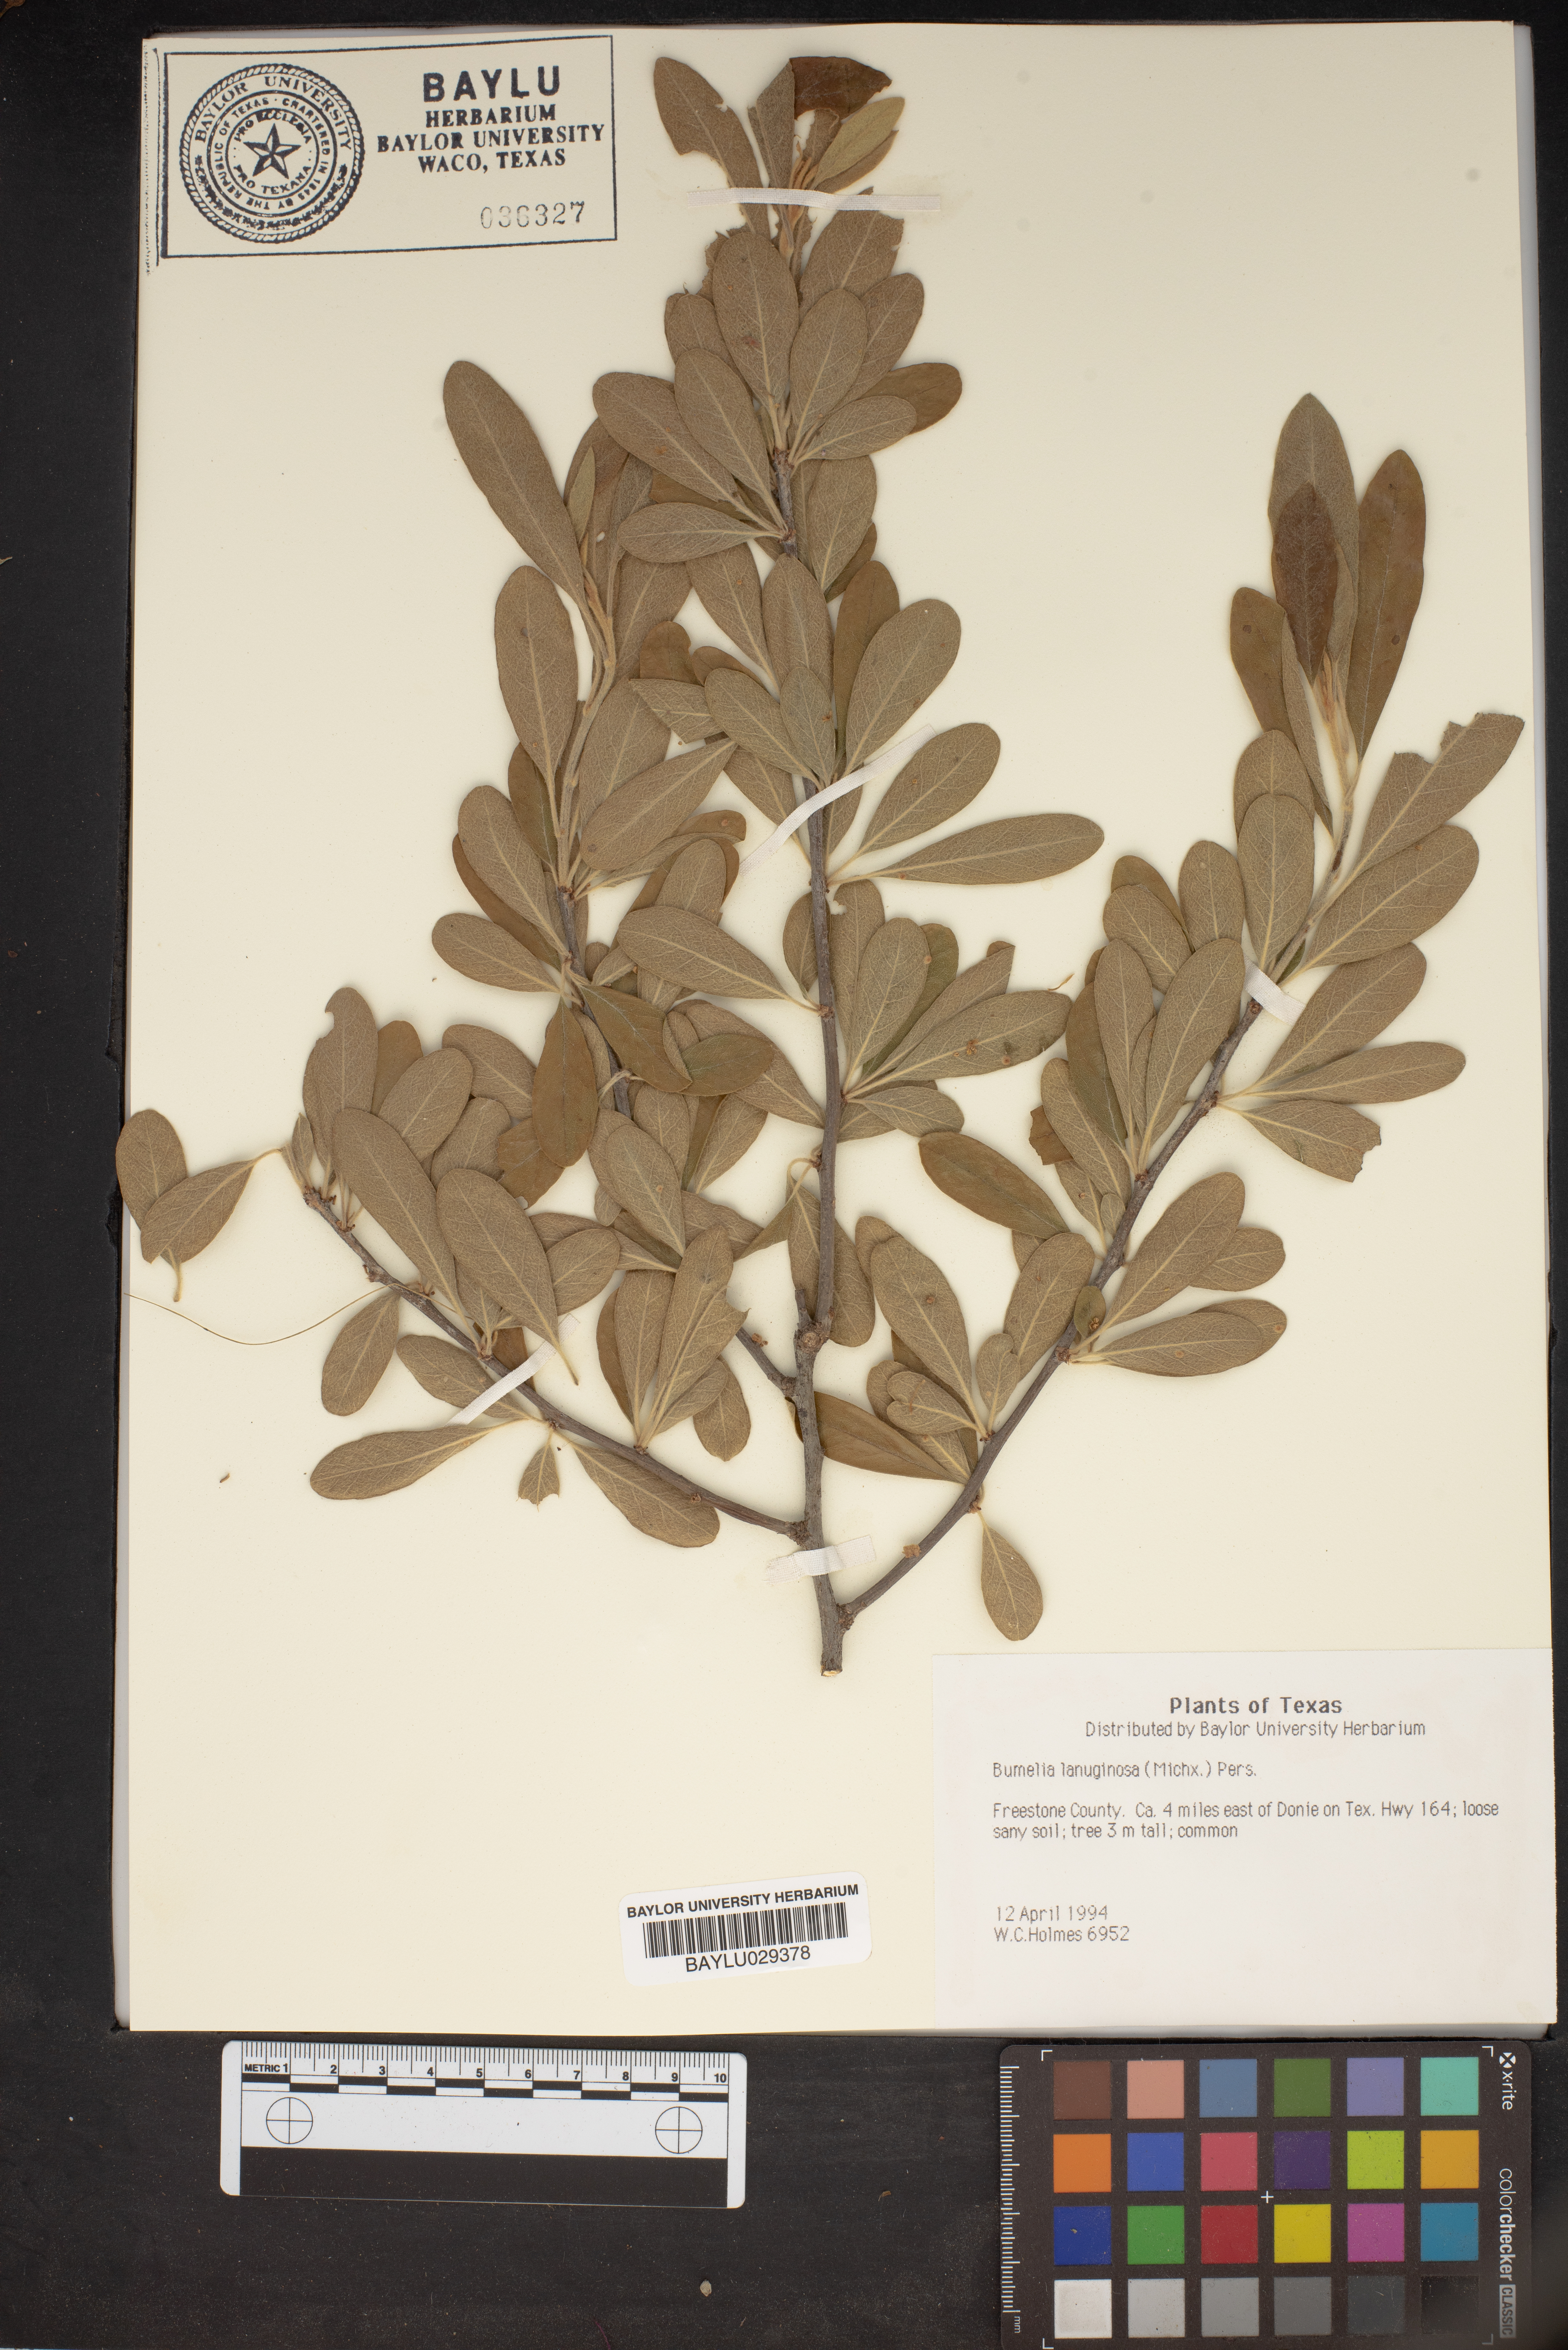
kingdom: Plantae
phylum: Tracheophyta
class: Magnoliopsida
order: Ericales
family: Sapotaceae
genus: Sideroxylon
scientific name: Sideroxylon lanuginosum
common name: Chittamwood
